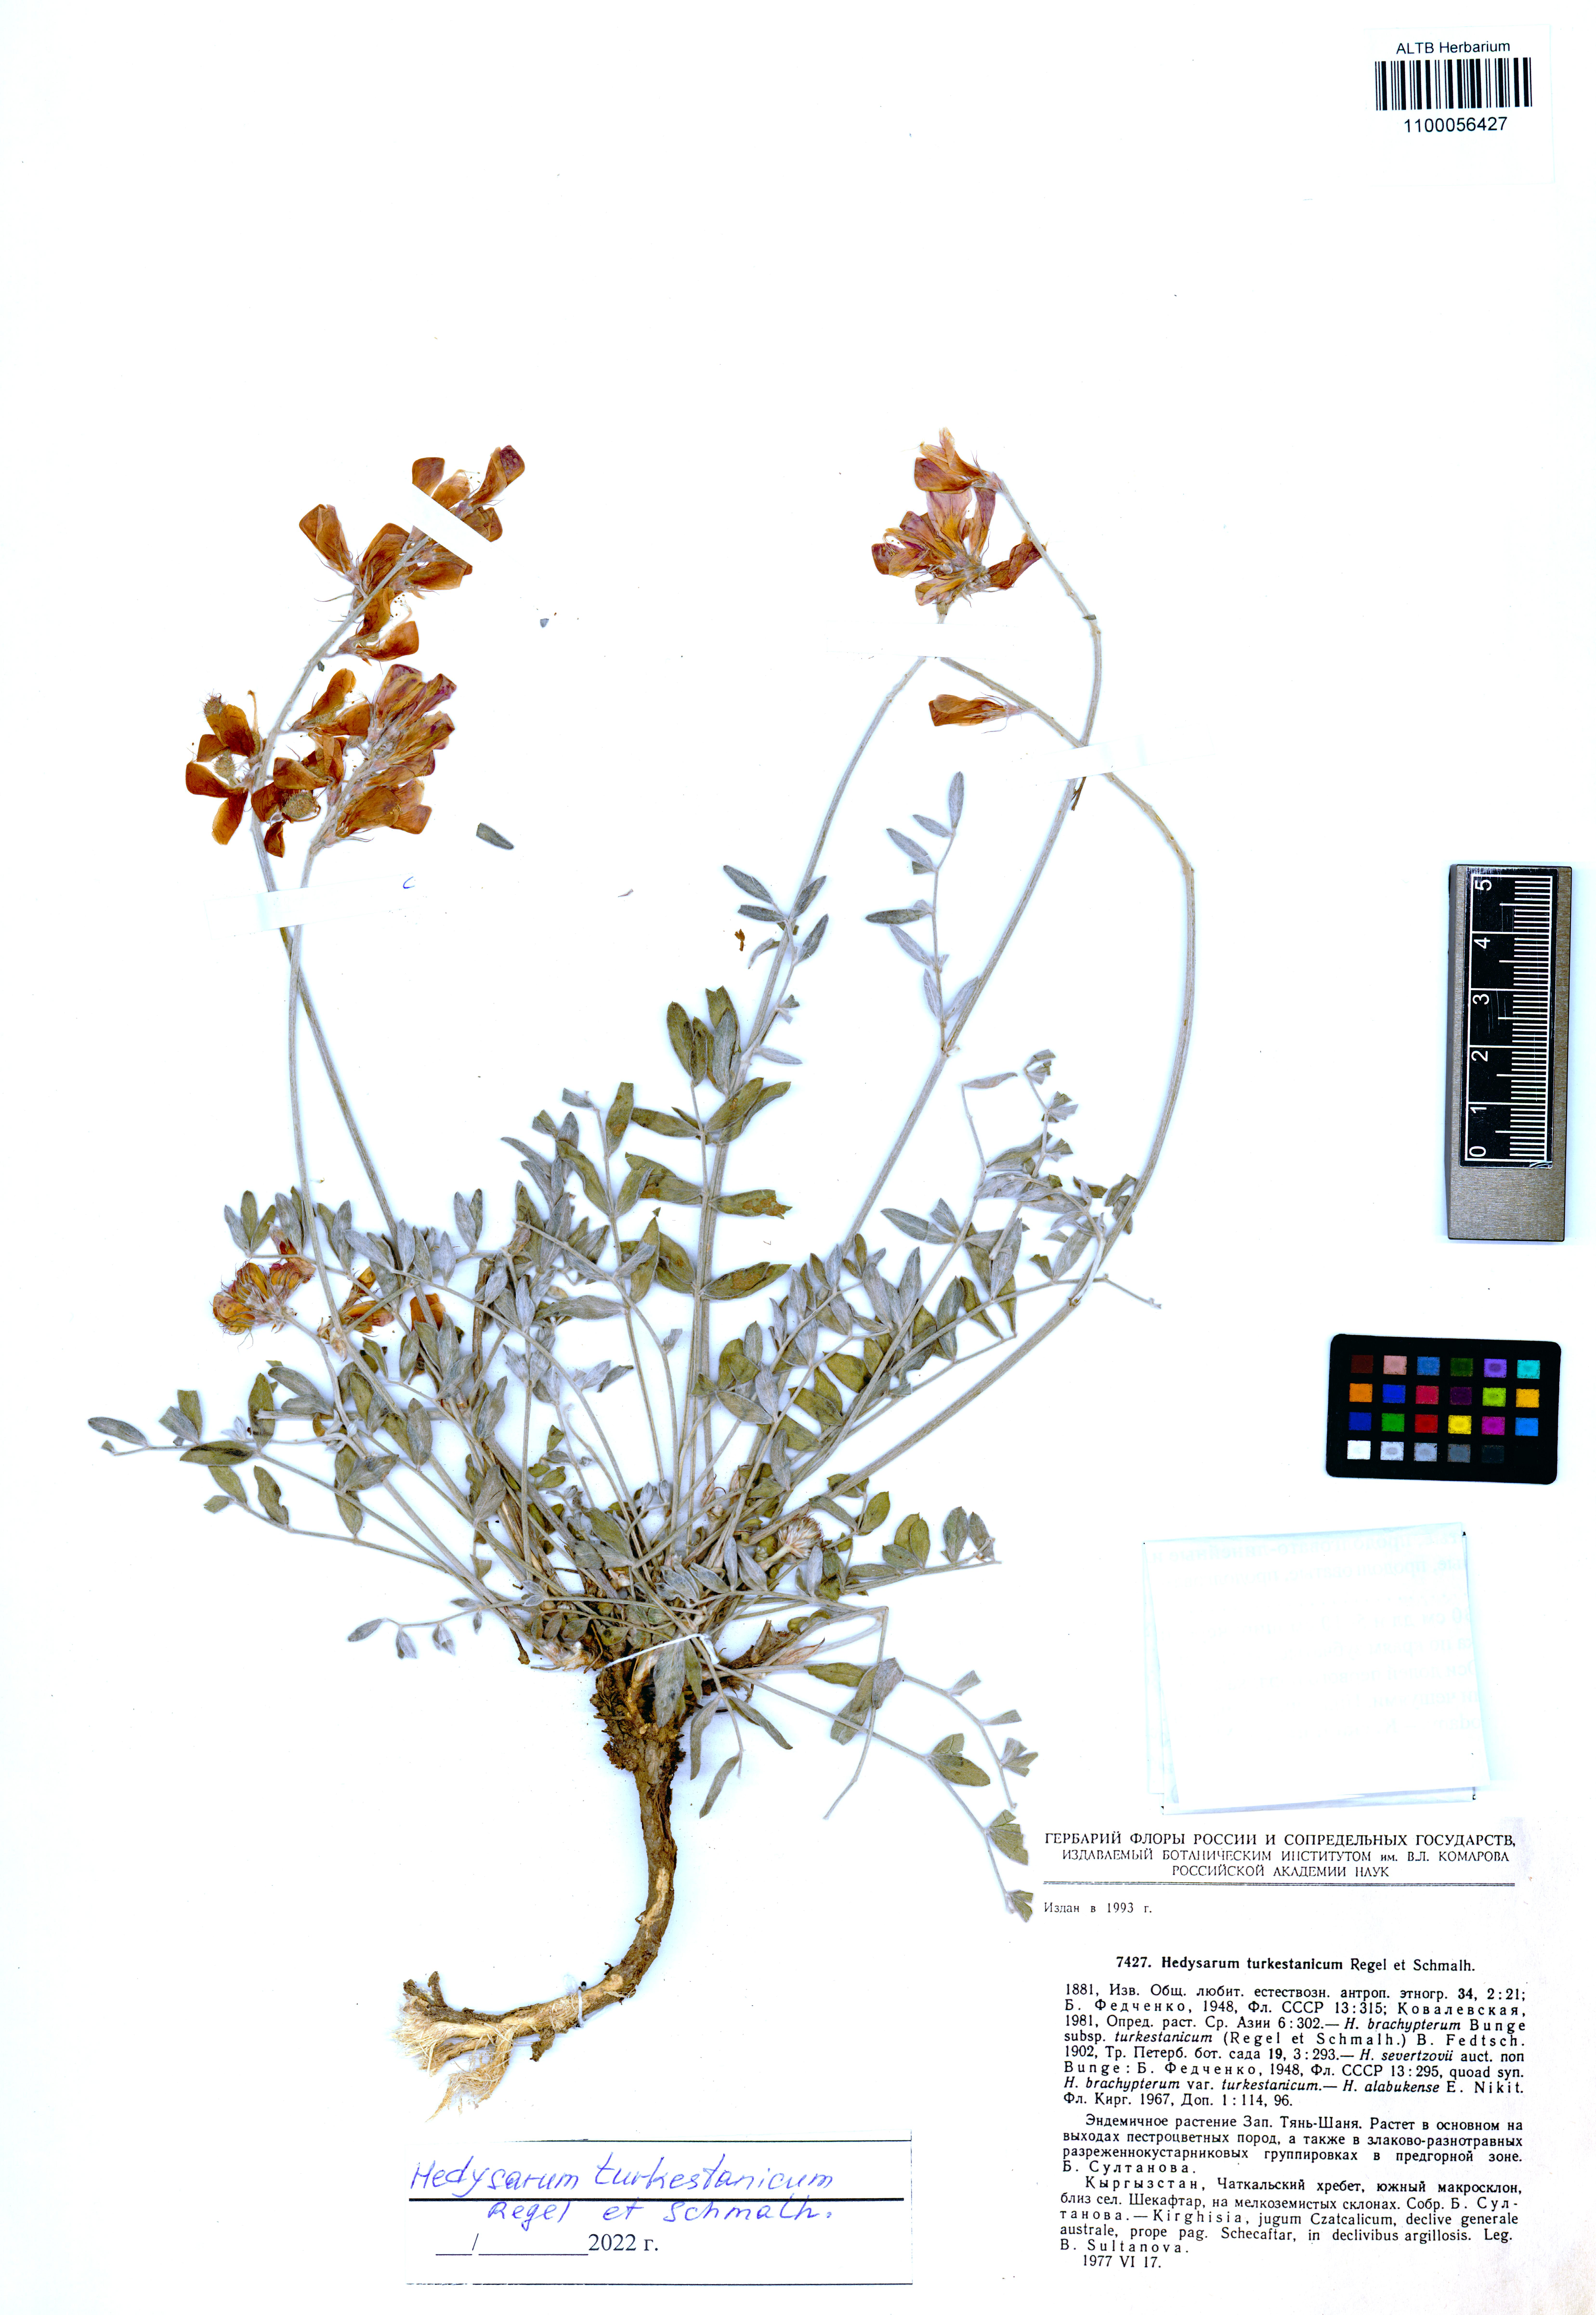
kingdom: Plantae
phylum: Tracheophyta
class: Magnoliopsida
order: Fabales
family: Fabaceae
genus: Hedysarum
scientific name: Hedysarum turkestanicum
